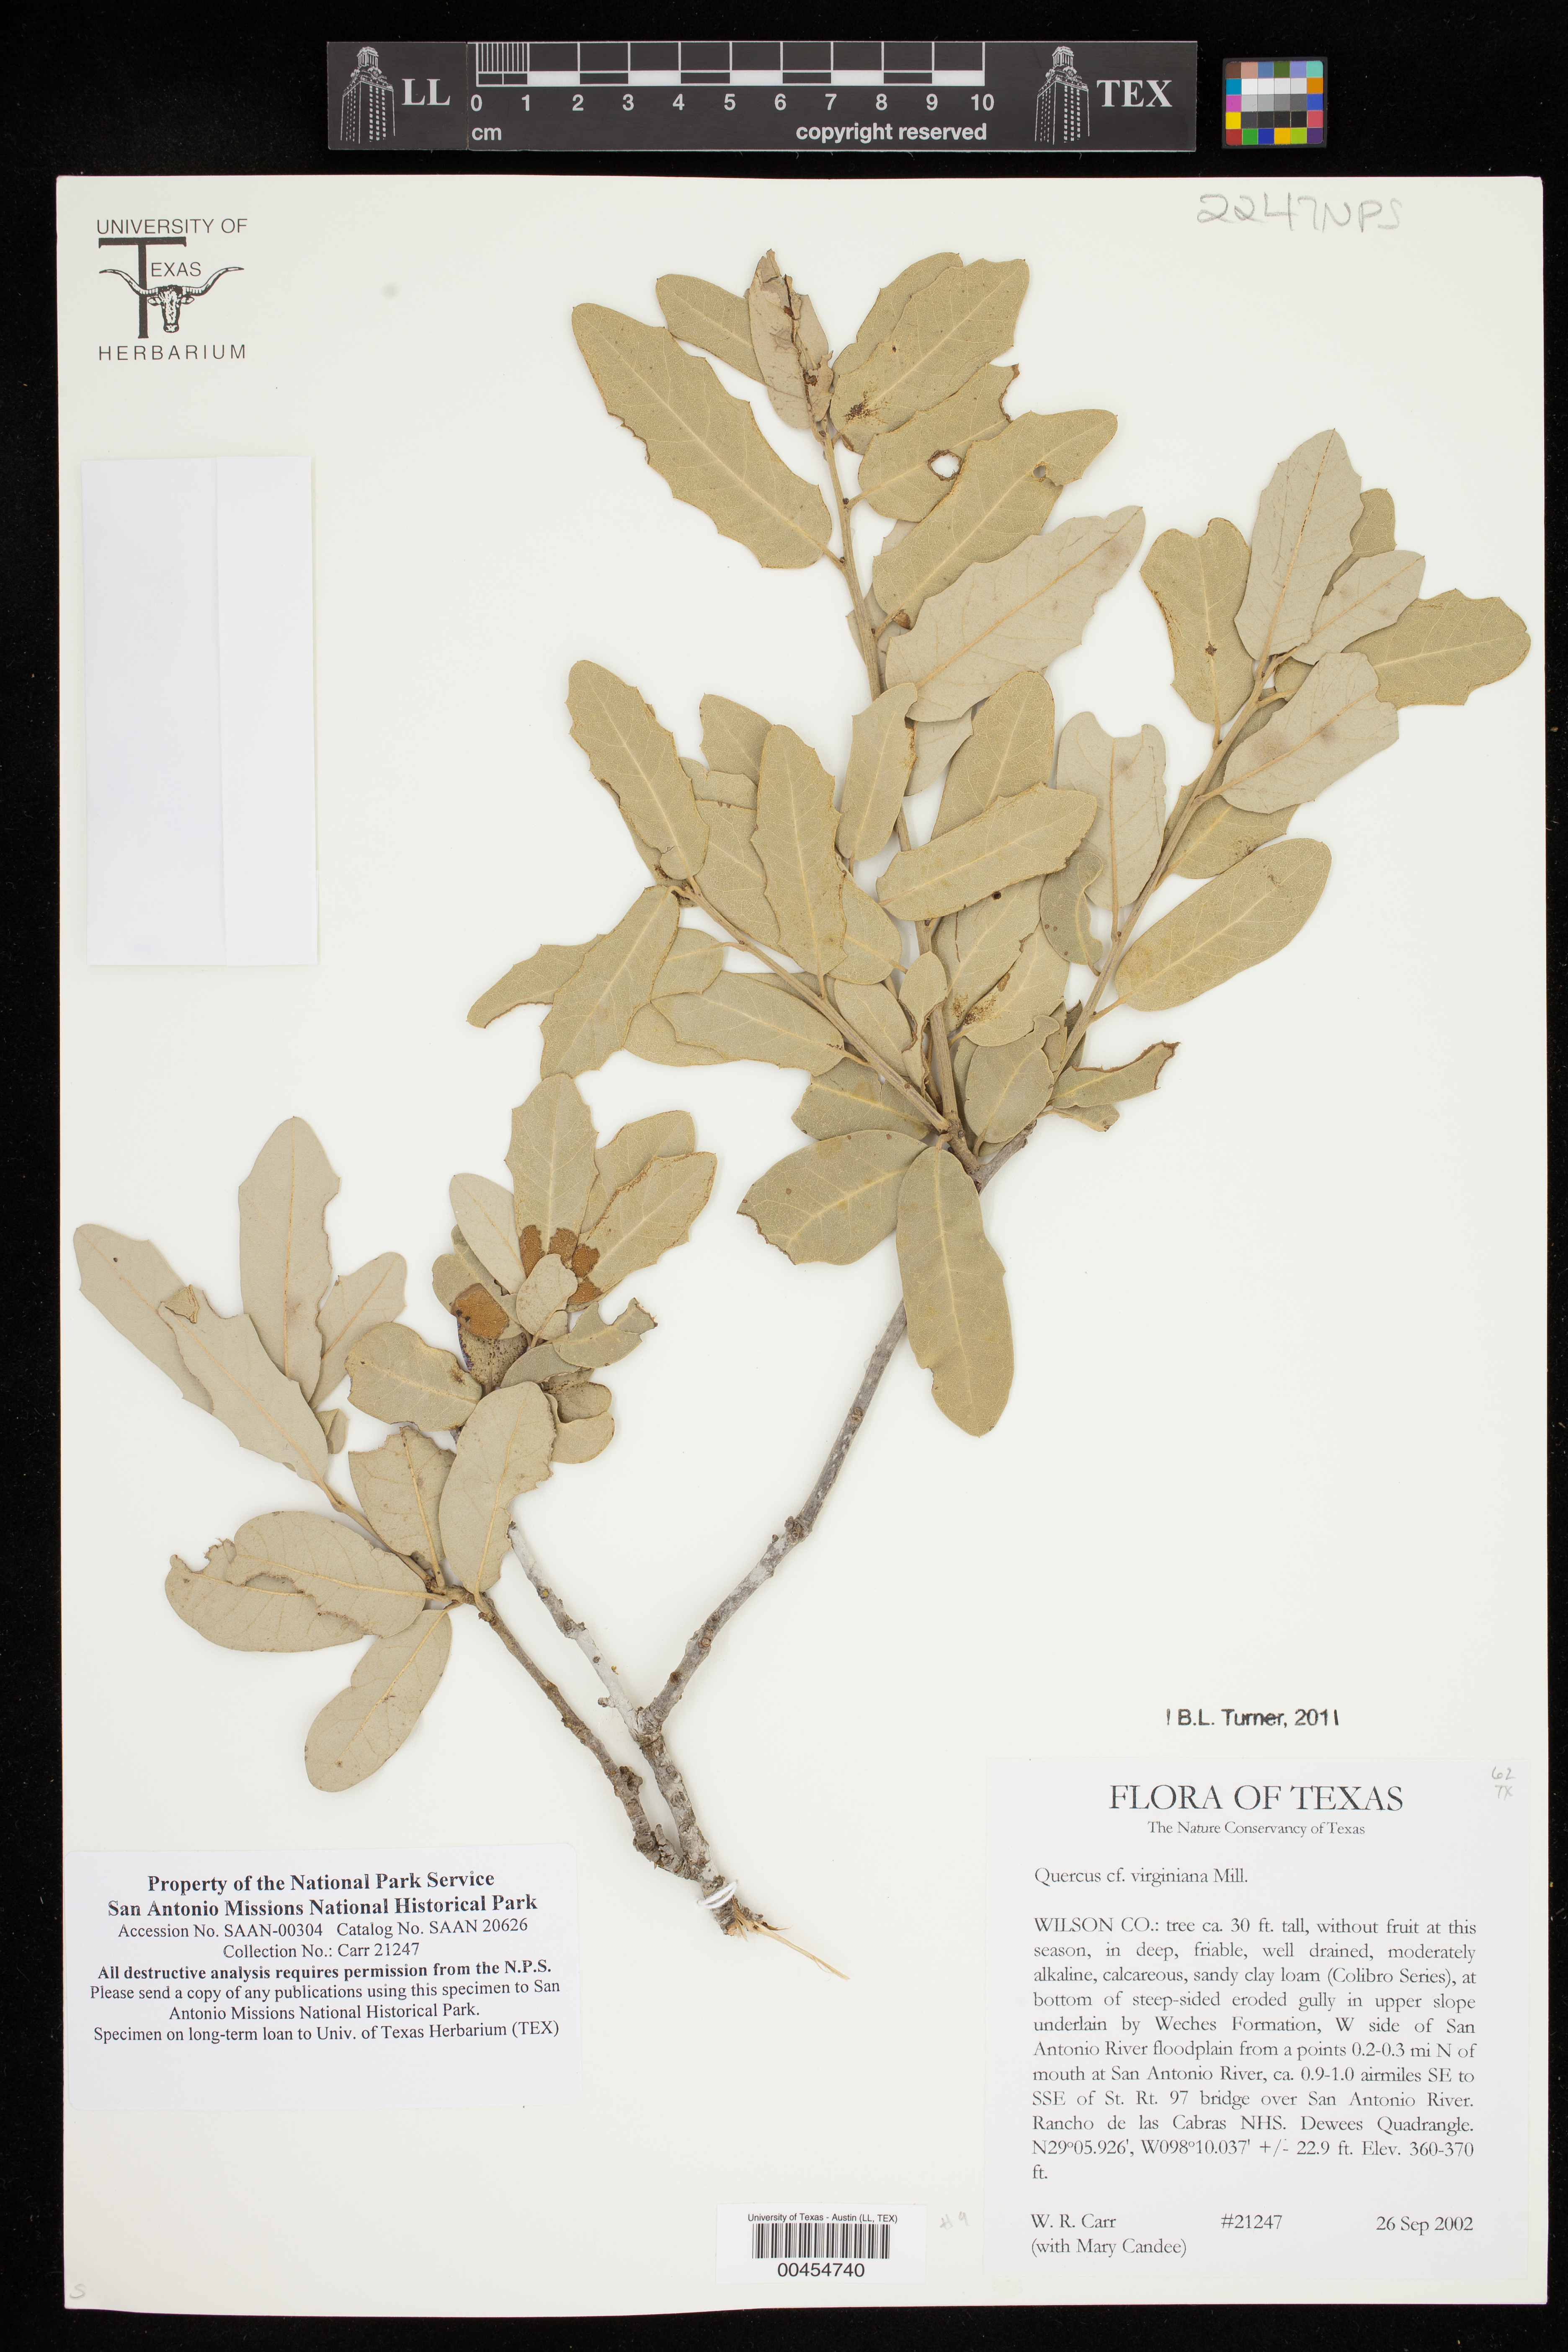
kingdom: Plantae
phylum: Tracheophyta
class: Magnoliopsida
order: Fagales
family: Fagaceae
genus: Quercus
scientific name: Quercus virginiana
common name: Southern live oak
